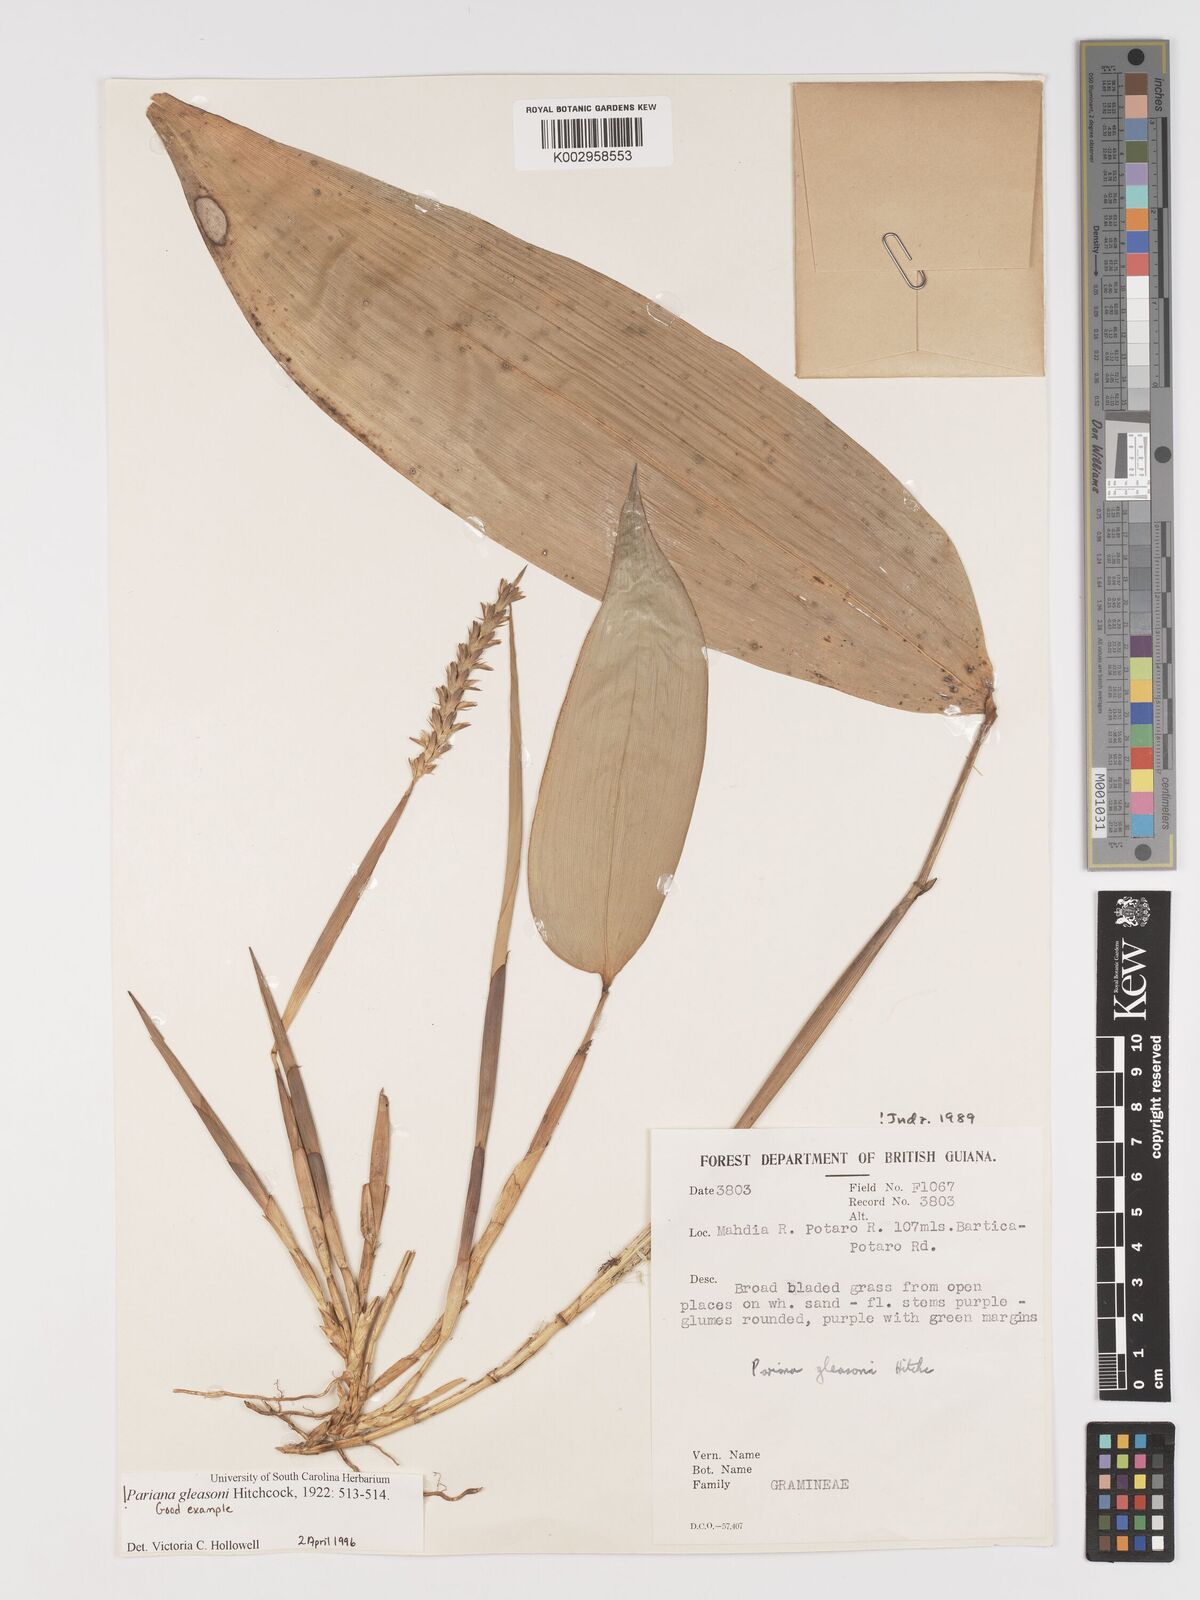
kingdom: Plantae
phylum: Tracheophyta
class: Liliopsida
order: Poales
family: Poaceae
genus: Pariana
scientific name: Pariana radiciflora
